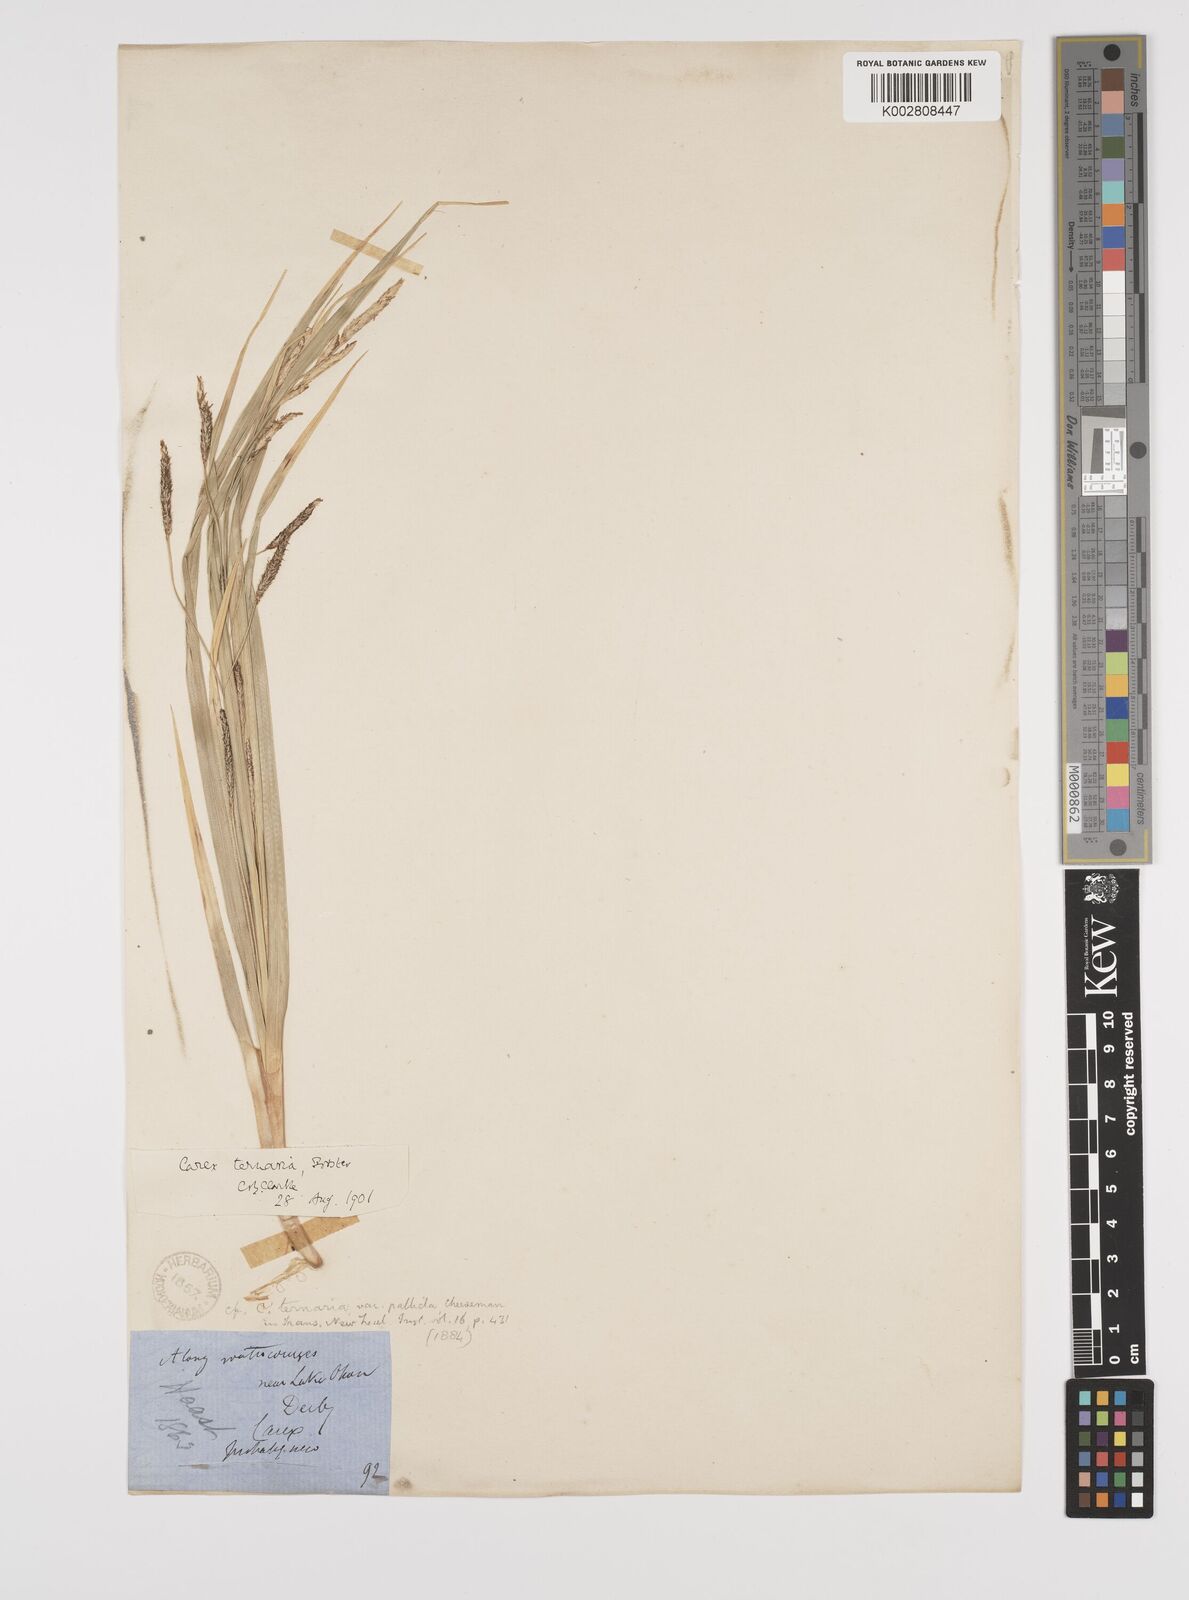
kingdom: Plantae
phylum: Tracheophyta
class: Liliopsida
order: Poales
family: Cyperaceae
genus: Carex
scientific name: Carex coriacea
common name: Rautahi
